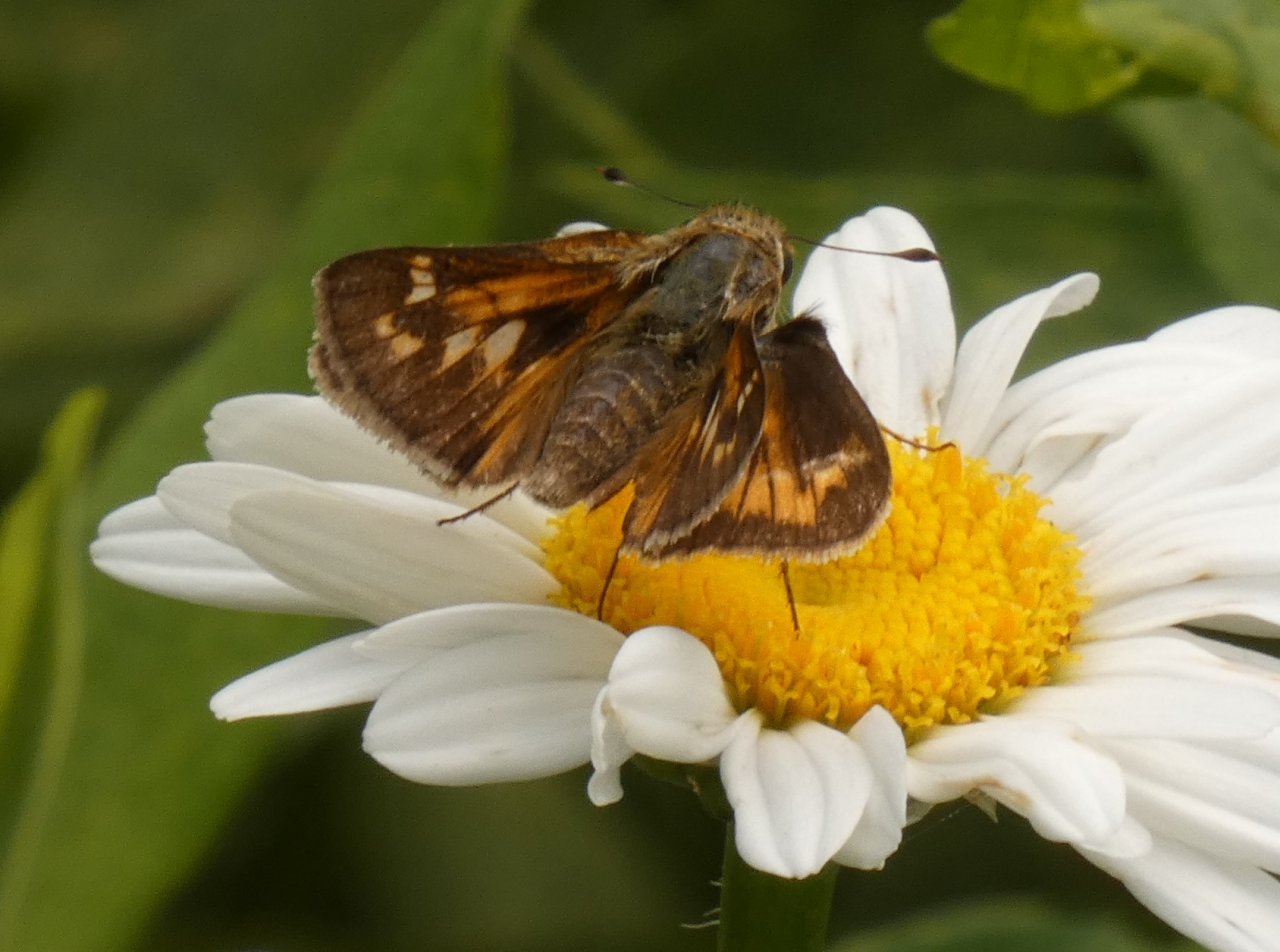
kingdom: Animalia
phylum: Arthropoda
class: Insecta
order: Lepidoptera
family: Hesperiidae
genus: Atalopedes
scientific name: Atalopedes campestris
